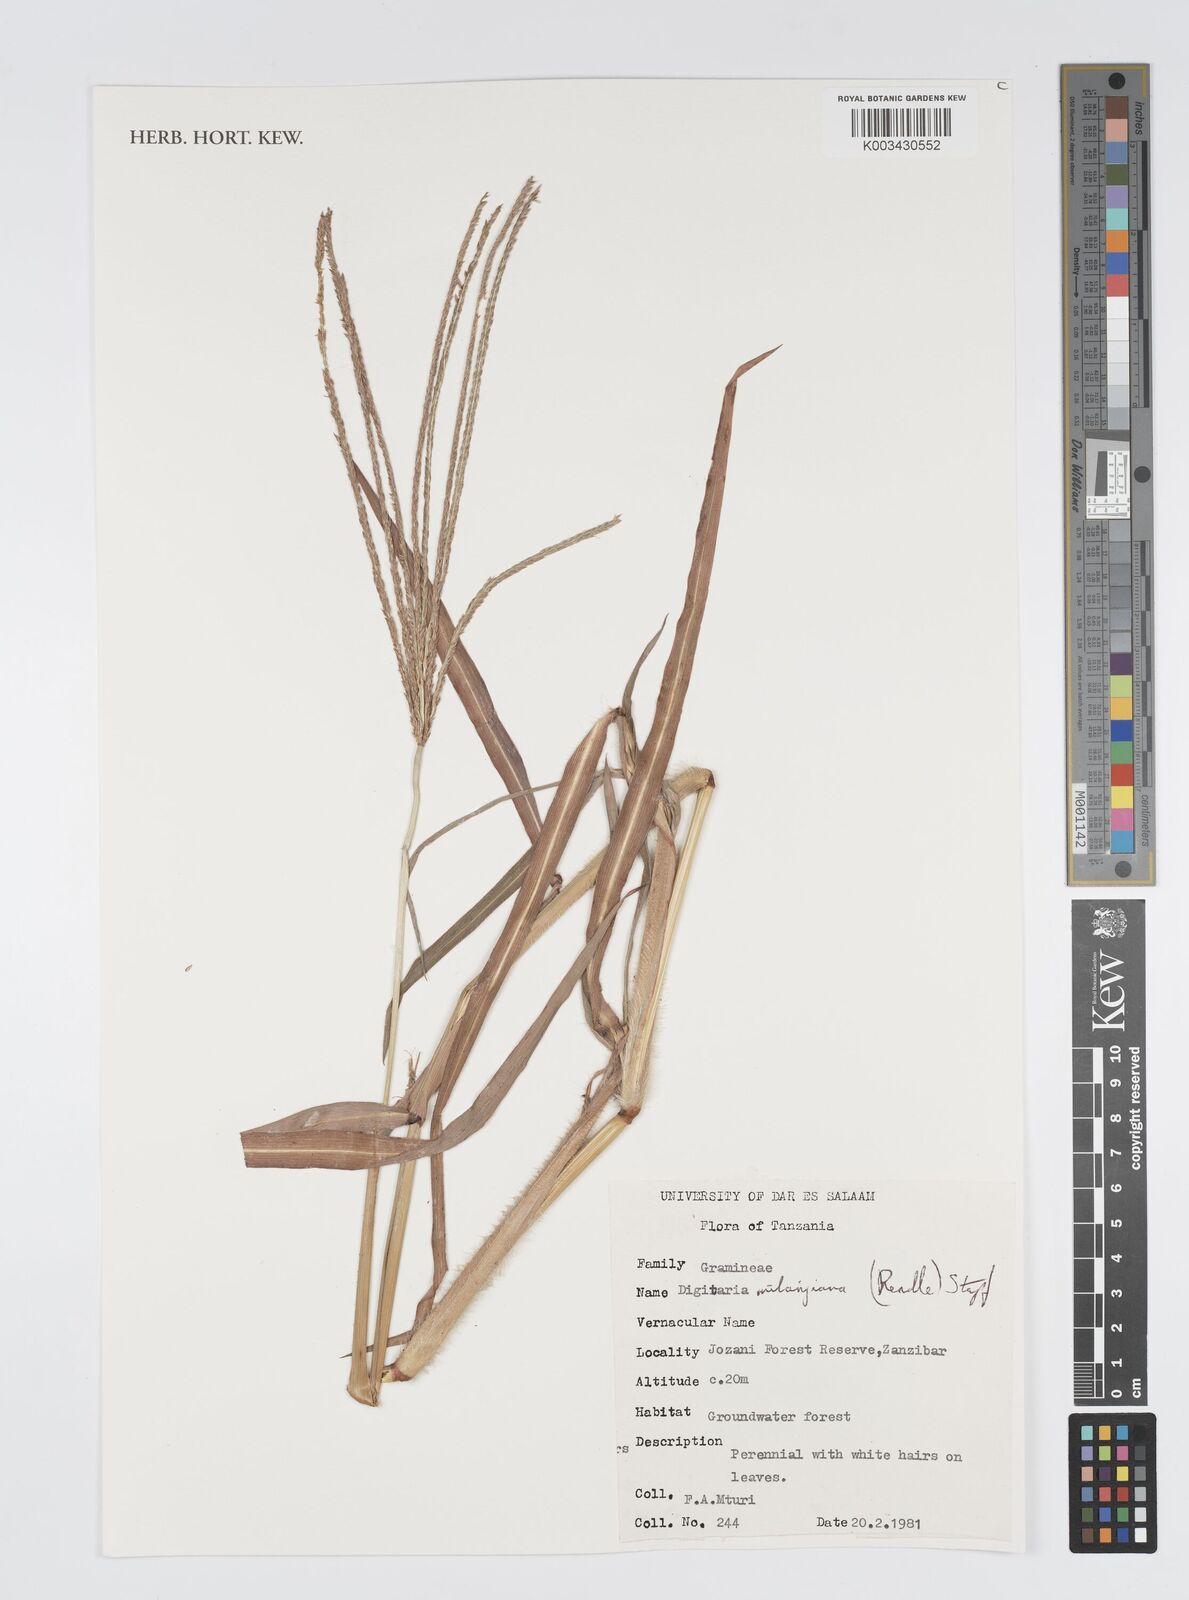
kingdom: Plantae
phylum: Tracheophyta
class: Liliopsida
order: Poales
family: Poaceae
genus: Digitaria
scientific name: Digitaria milanjiana
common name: Madagascar crabgrass
